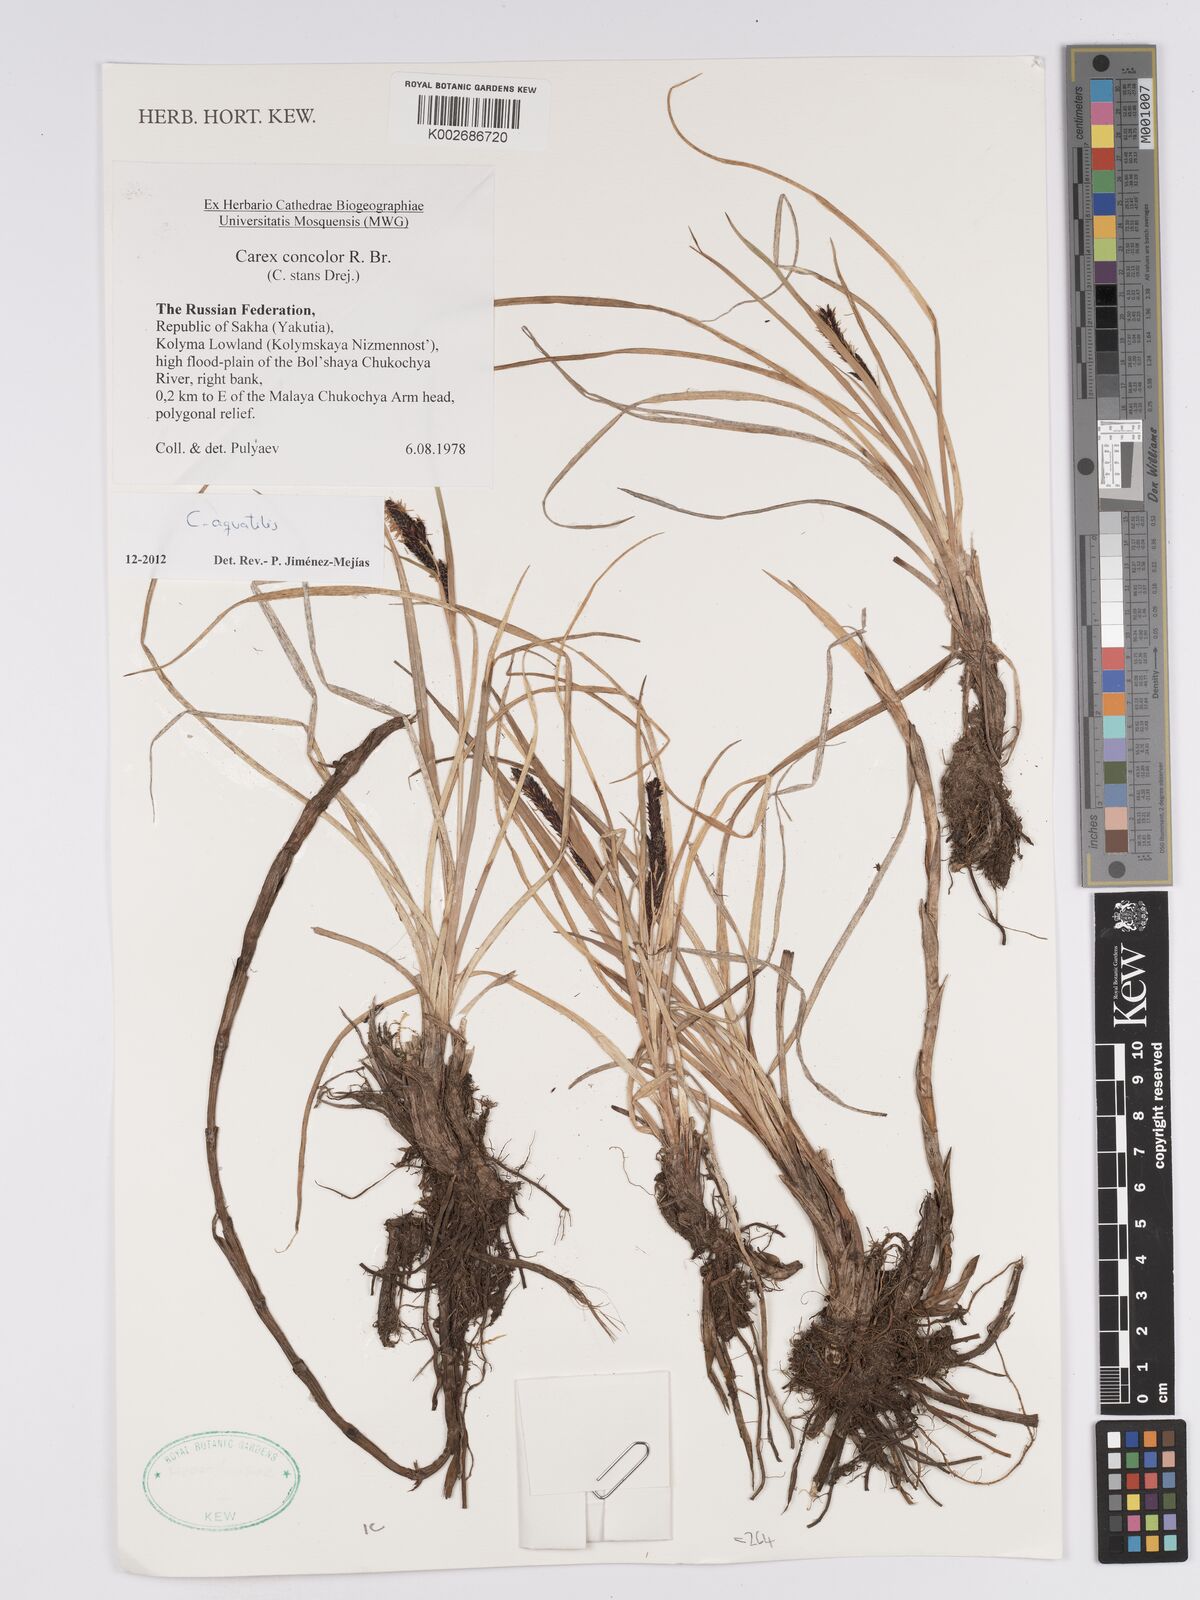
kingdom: Plantae
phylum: Tracheophyta
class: Liliopsida
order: Poales
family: Cyperaceae
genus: Carex
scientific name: Carex aquatilis
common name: Water sedge
